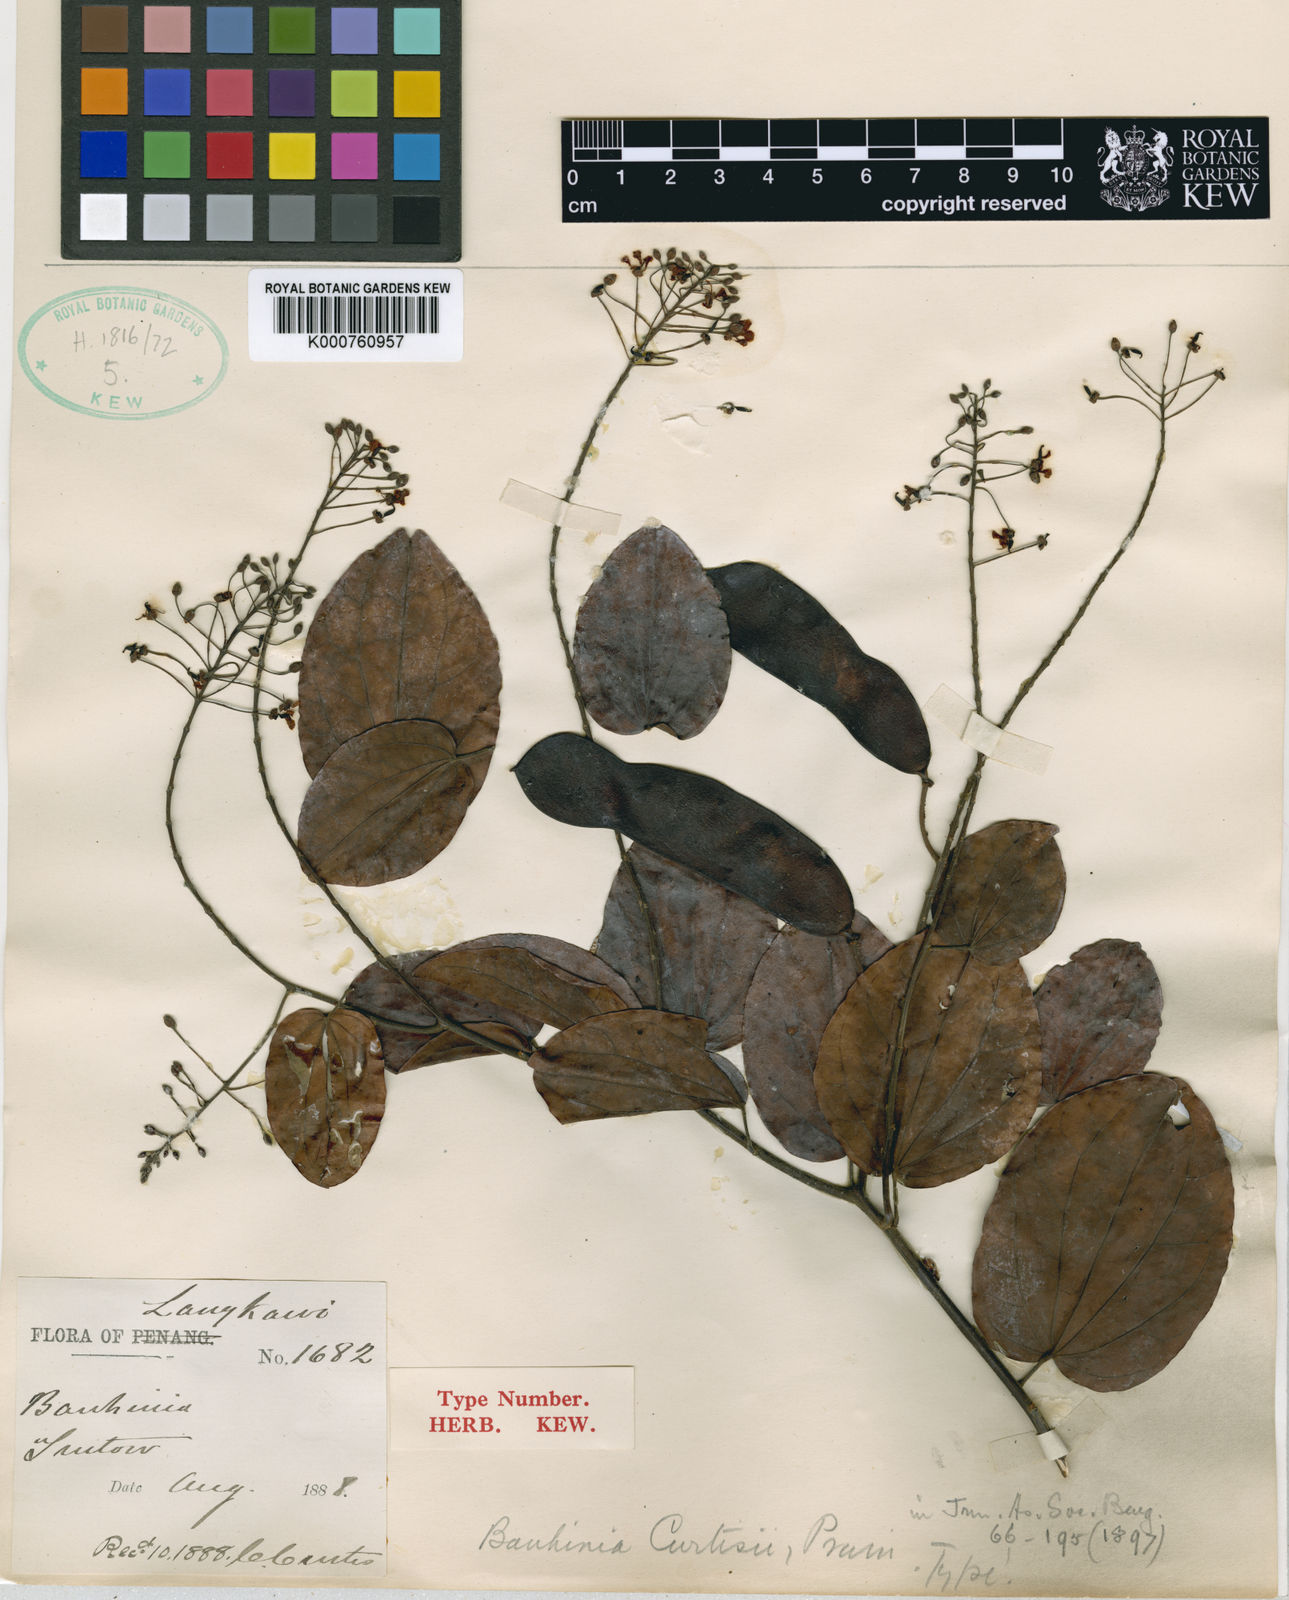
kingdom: Plantae
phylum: Tracheophyta
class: Magnoliopsida
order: Fabales
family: Fabaceae
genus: Phanera
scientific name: Phanera curtisii
